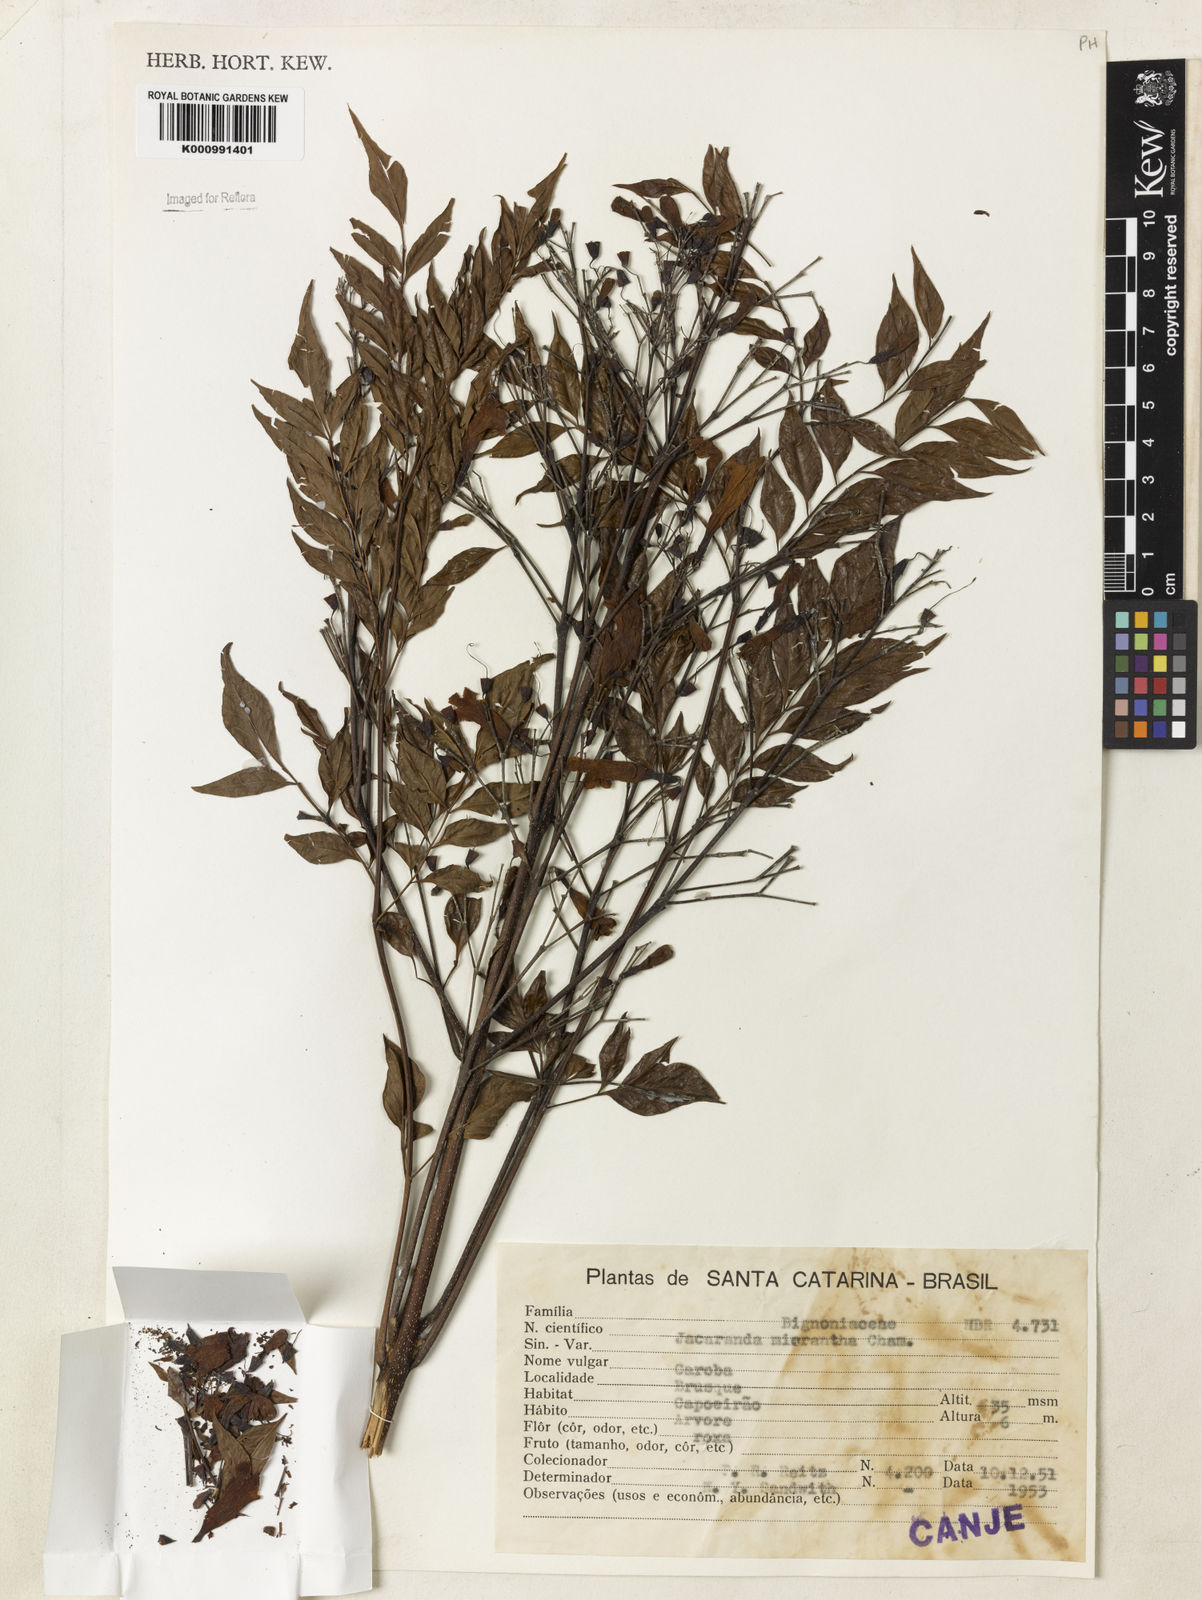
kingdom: Plantae
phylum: Tracheophyta
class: Magnoliopsida
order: Lamiales
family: Bignoniaceae
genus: Jacaranda
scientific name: Jacaranda micrantha
